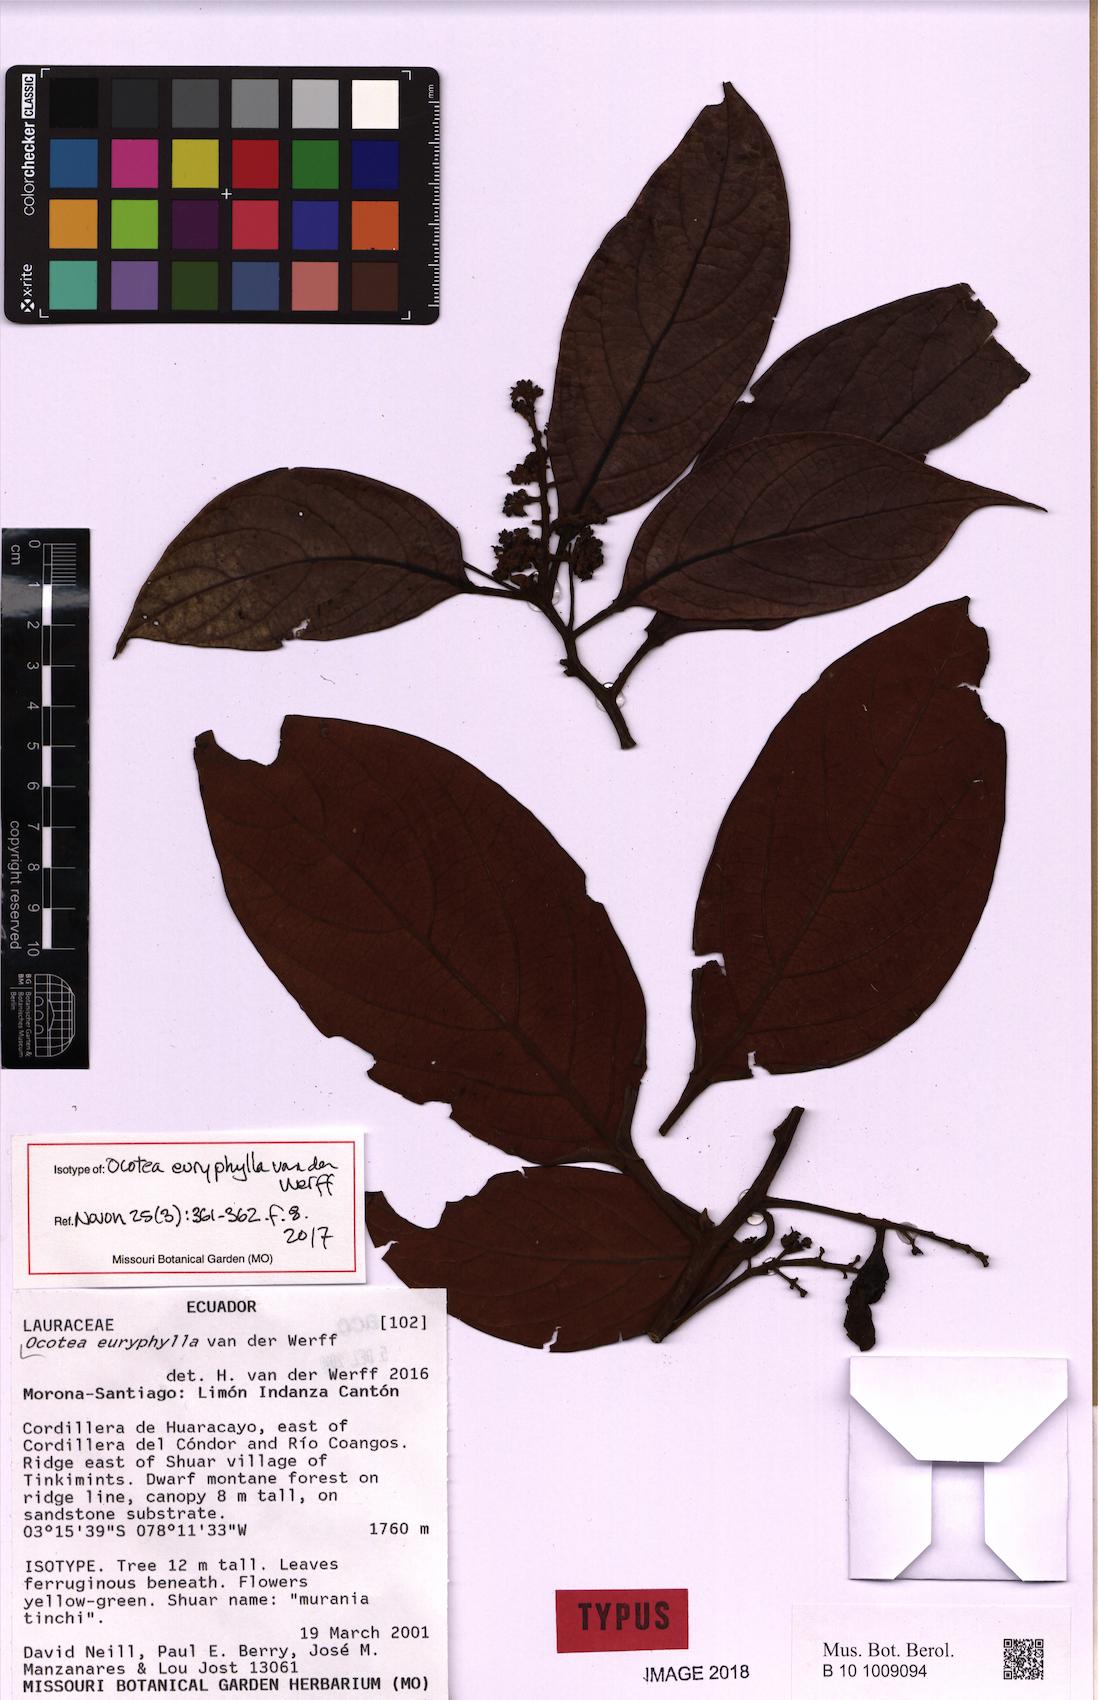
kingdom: Plantae
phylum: Tracheophyta
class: Magnoliopsida
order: Laurales
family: Lauraceae
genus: Ocotea
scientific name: Ocotea euryphylla
